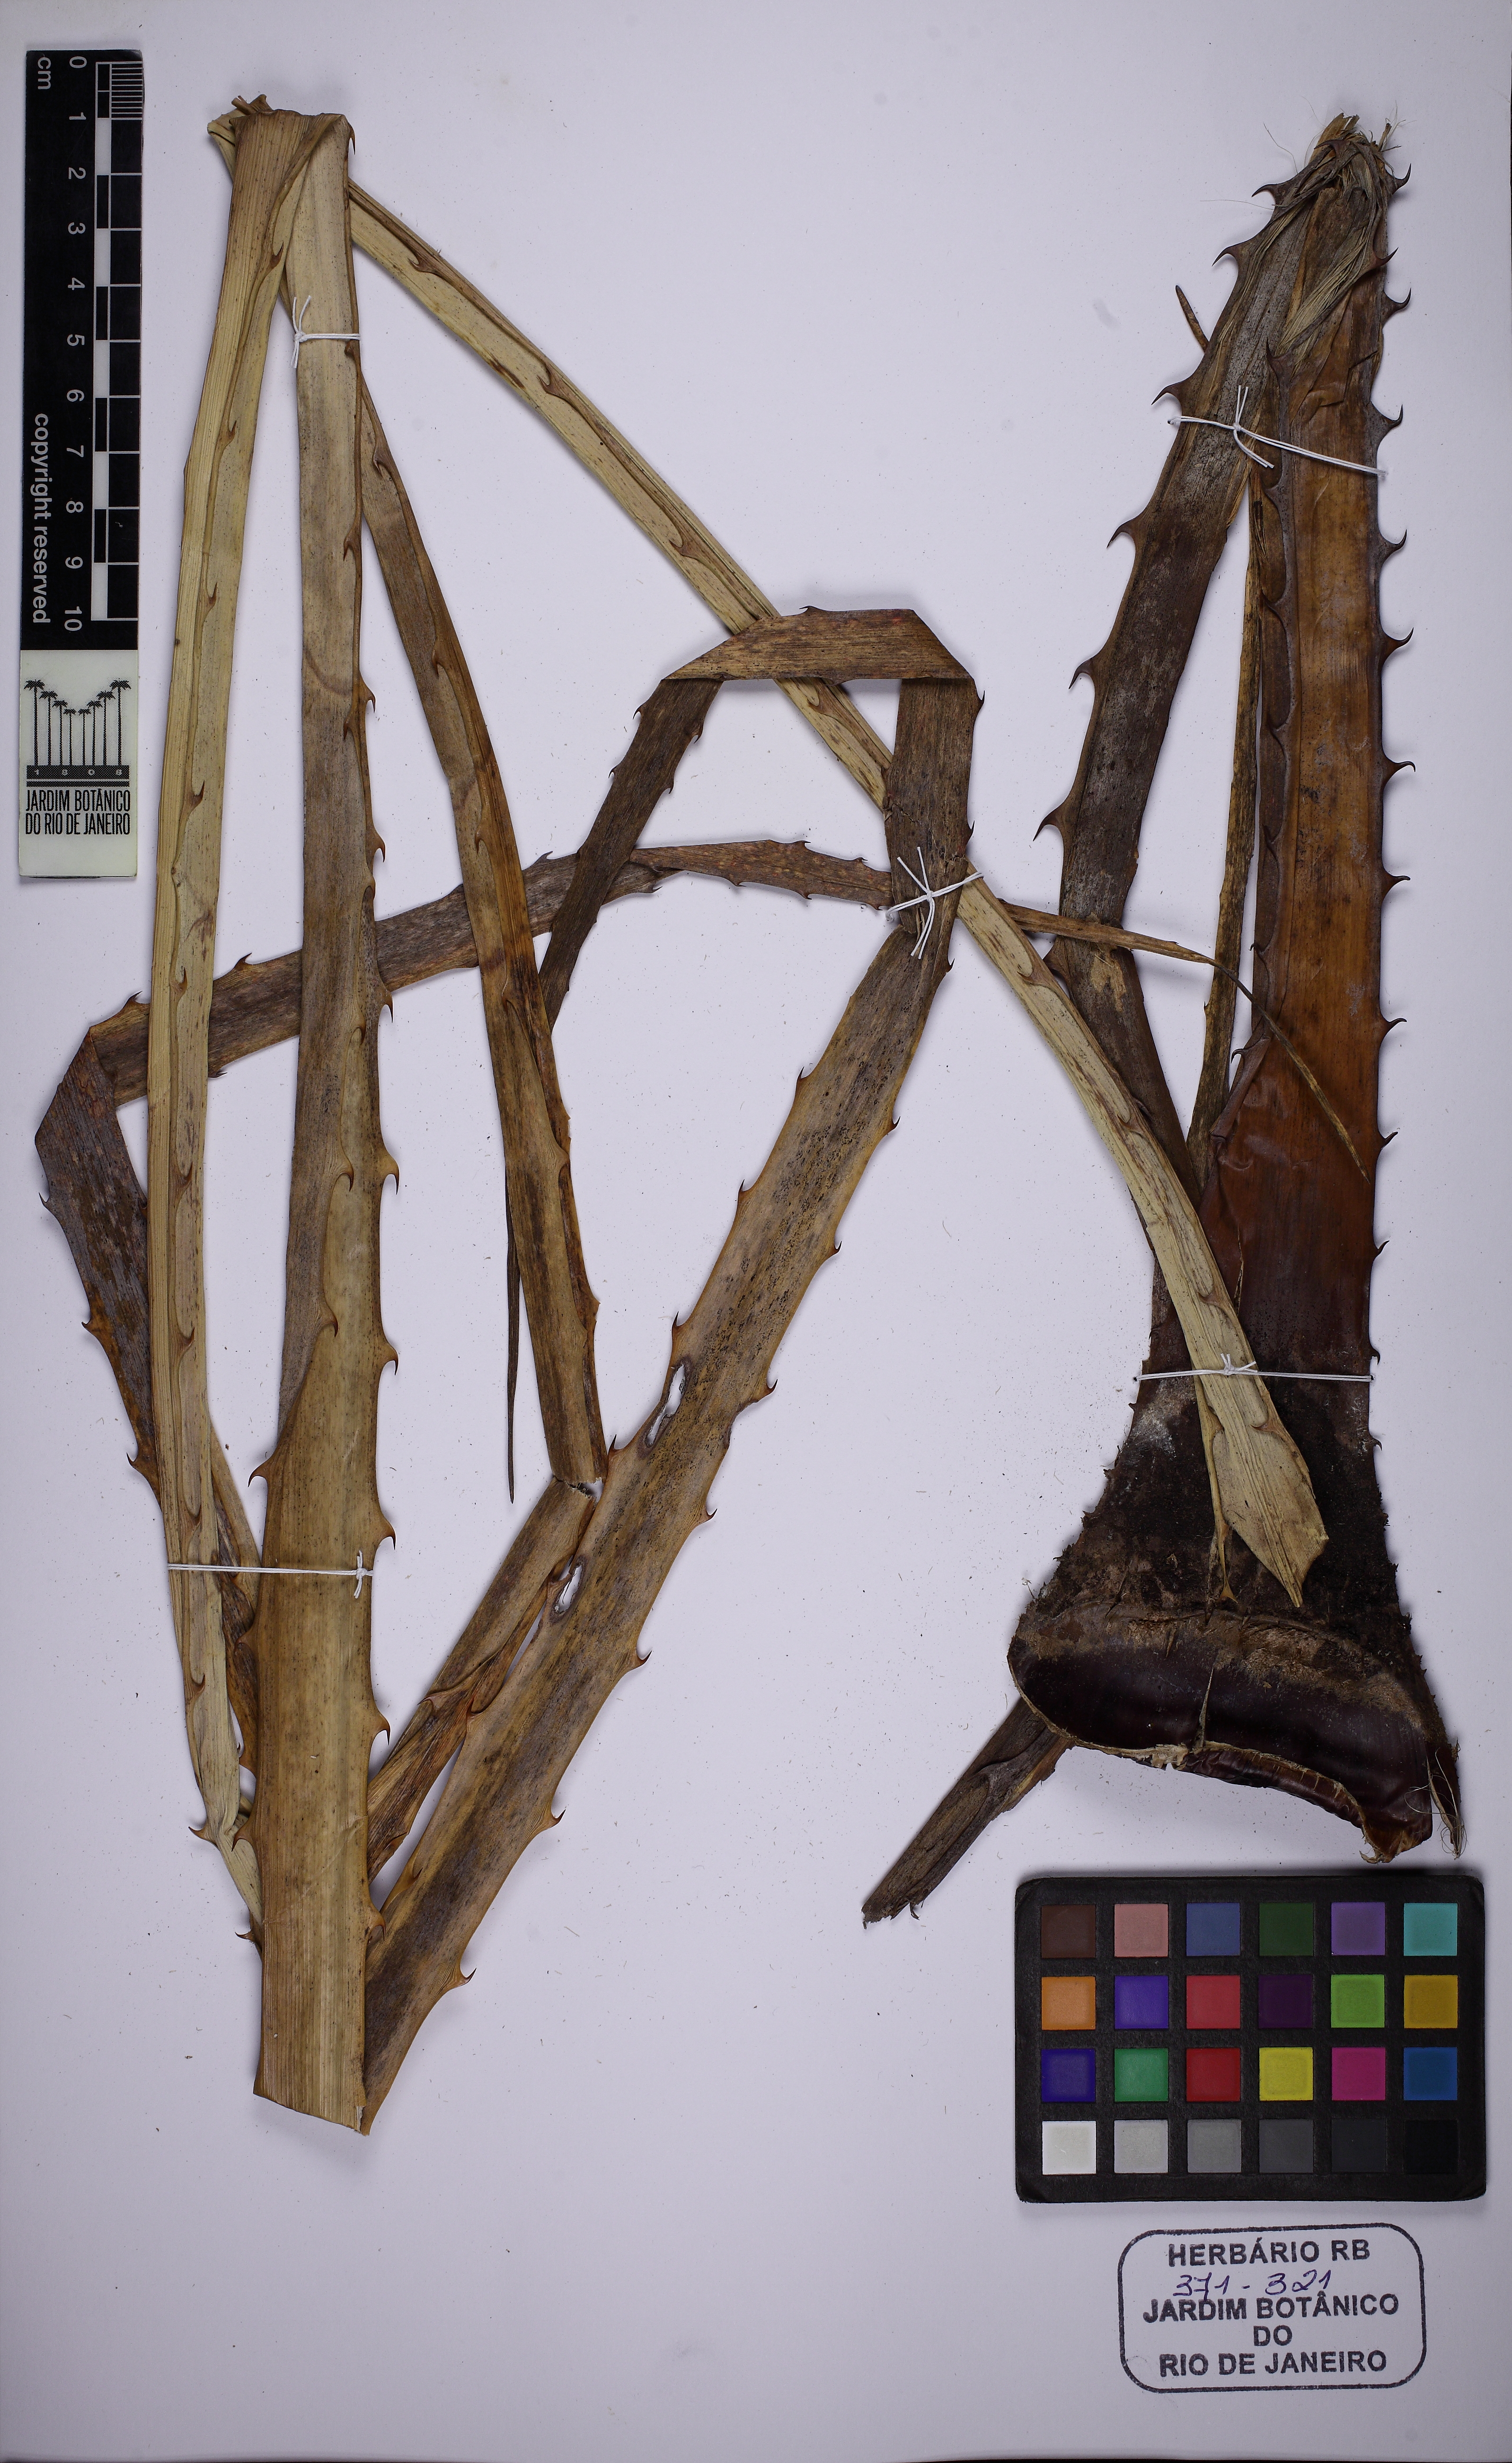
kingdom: Plantae
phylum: Tracheophyta
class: Liliopsida
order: Poales
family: Bromeliaceae
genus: Bromelia
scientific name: Bromelia karatas
